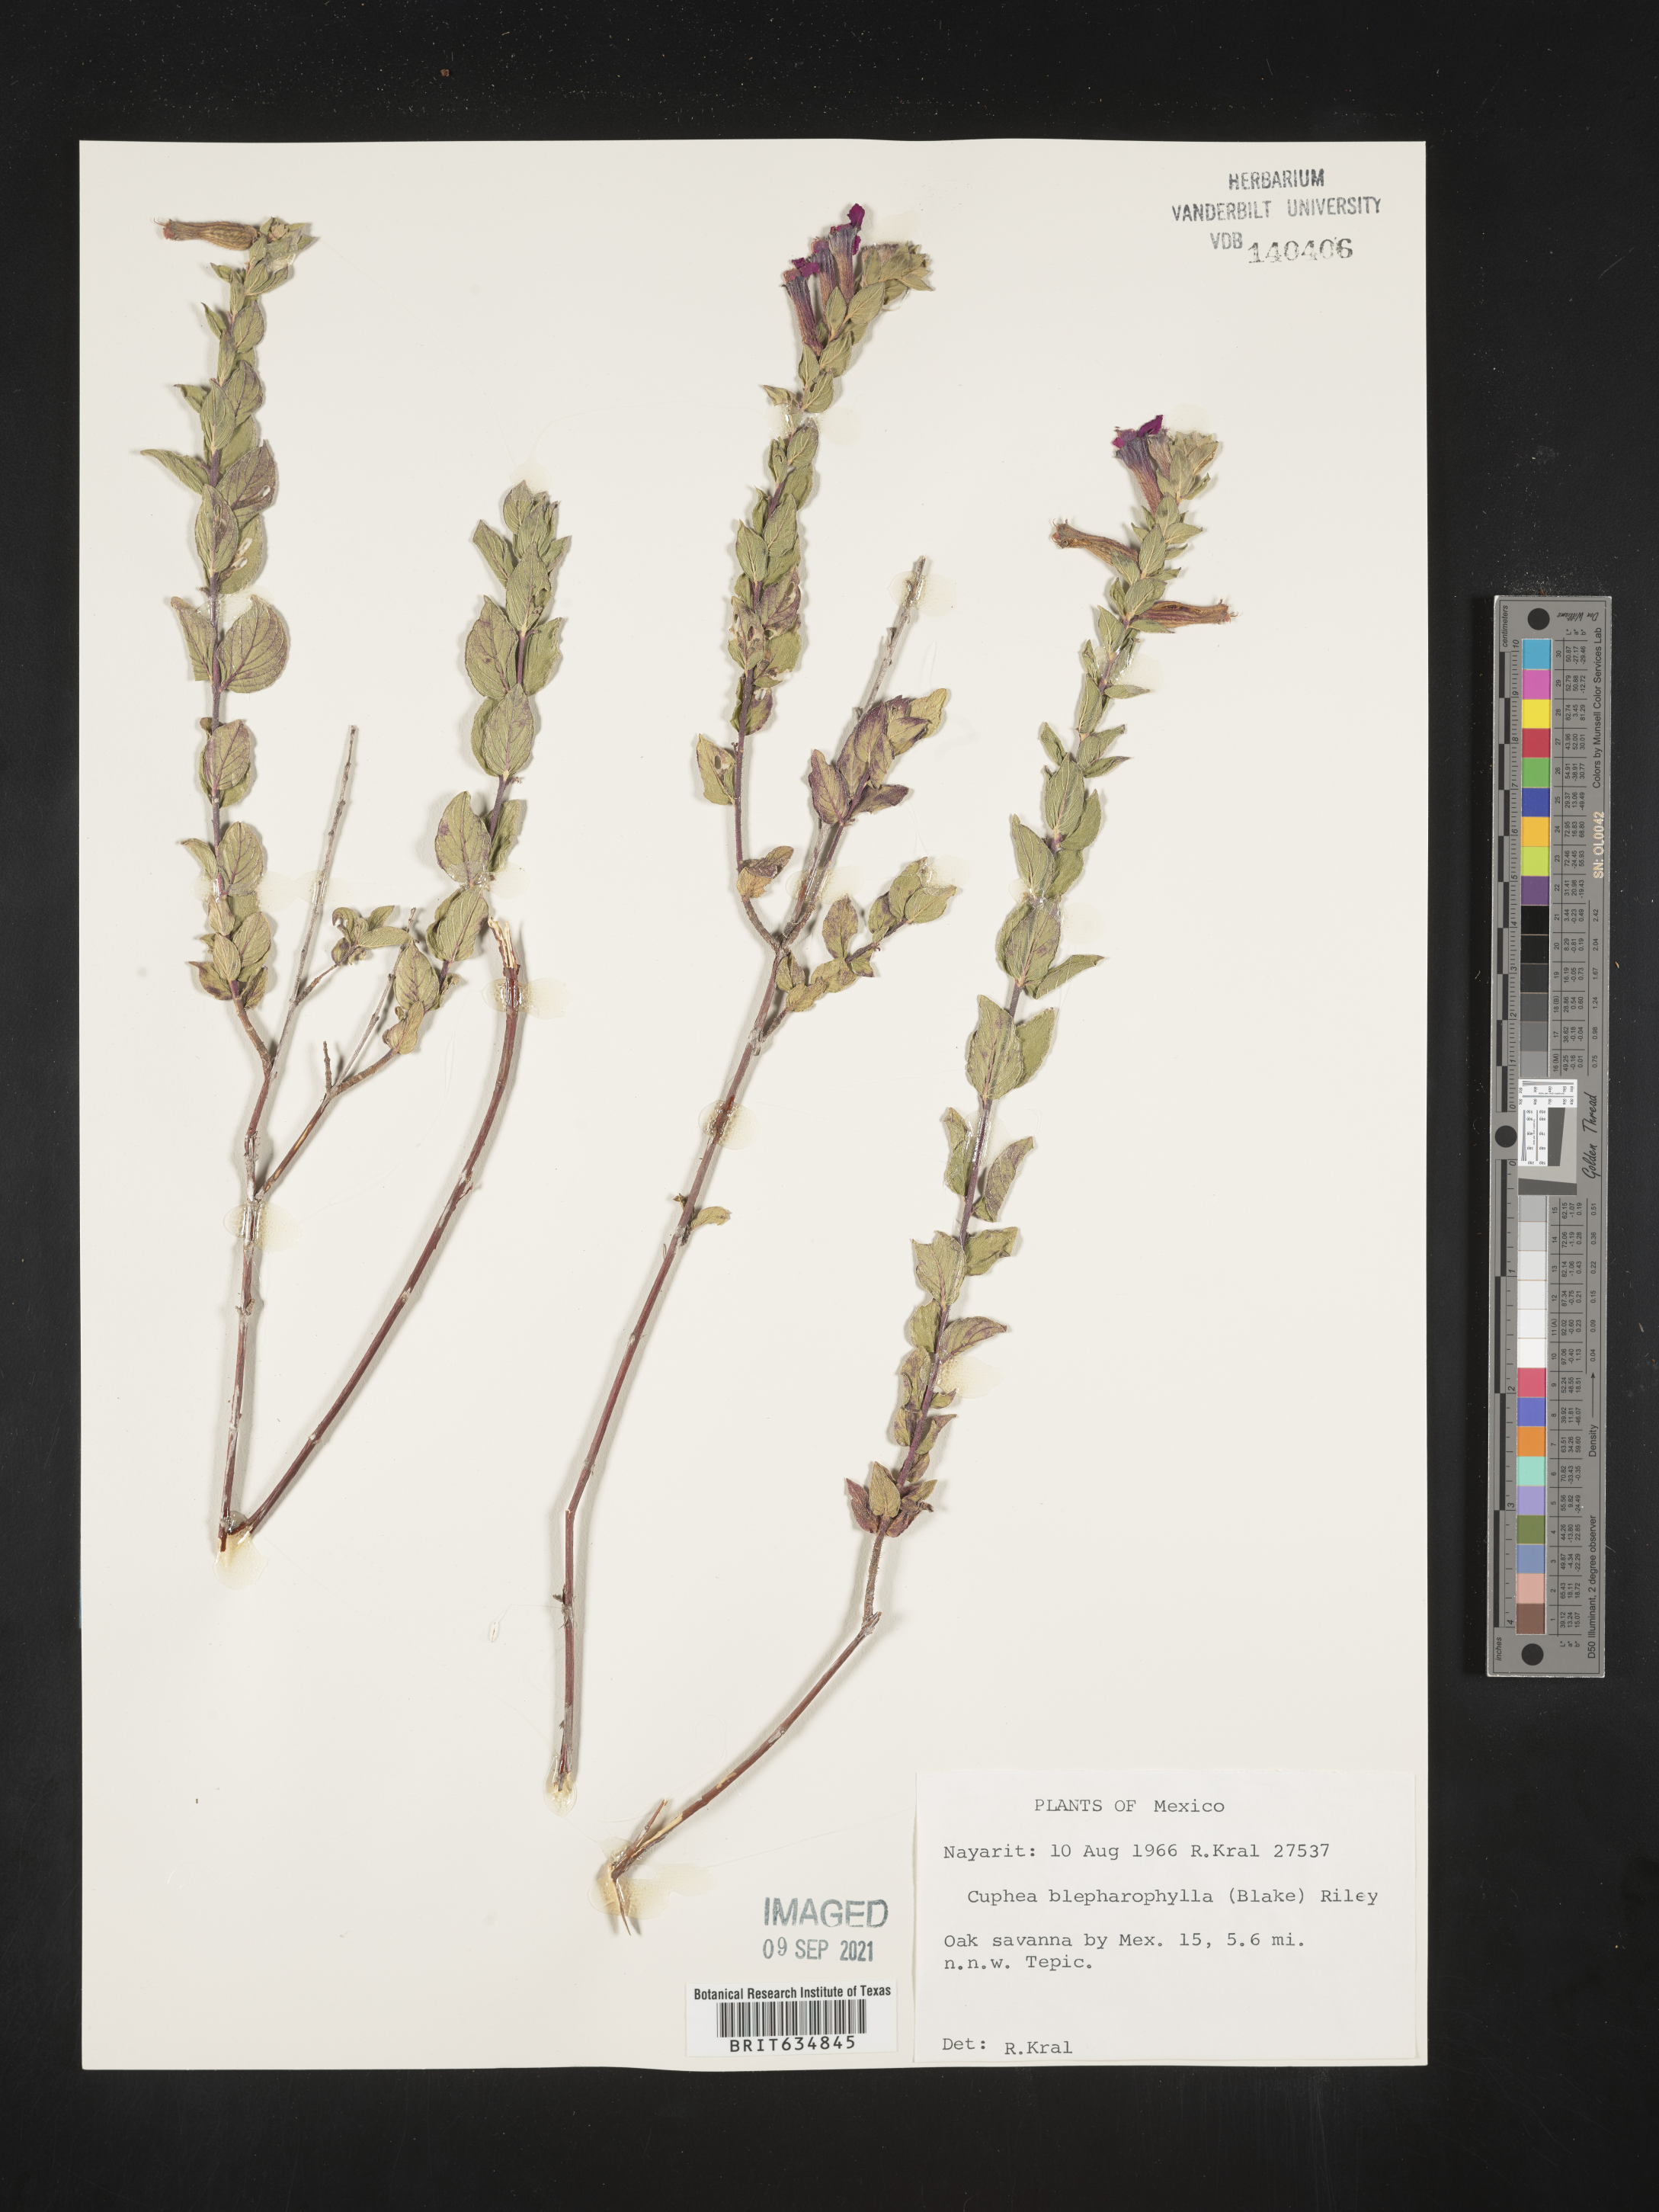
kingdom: Plantae
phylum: Tracheophyta
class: Magnoliopsida
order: Myrtales
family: Lythraceae
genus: Cuphea
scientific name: Cuphea
